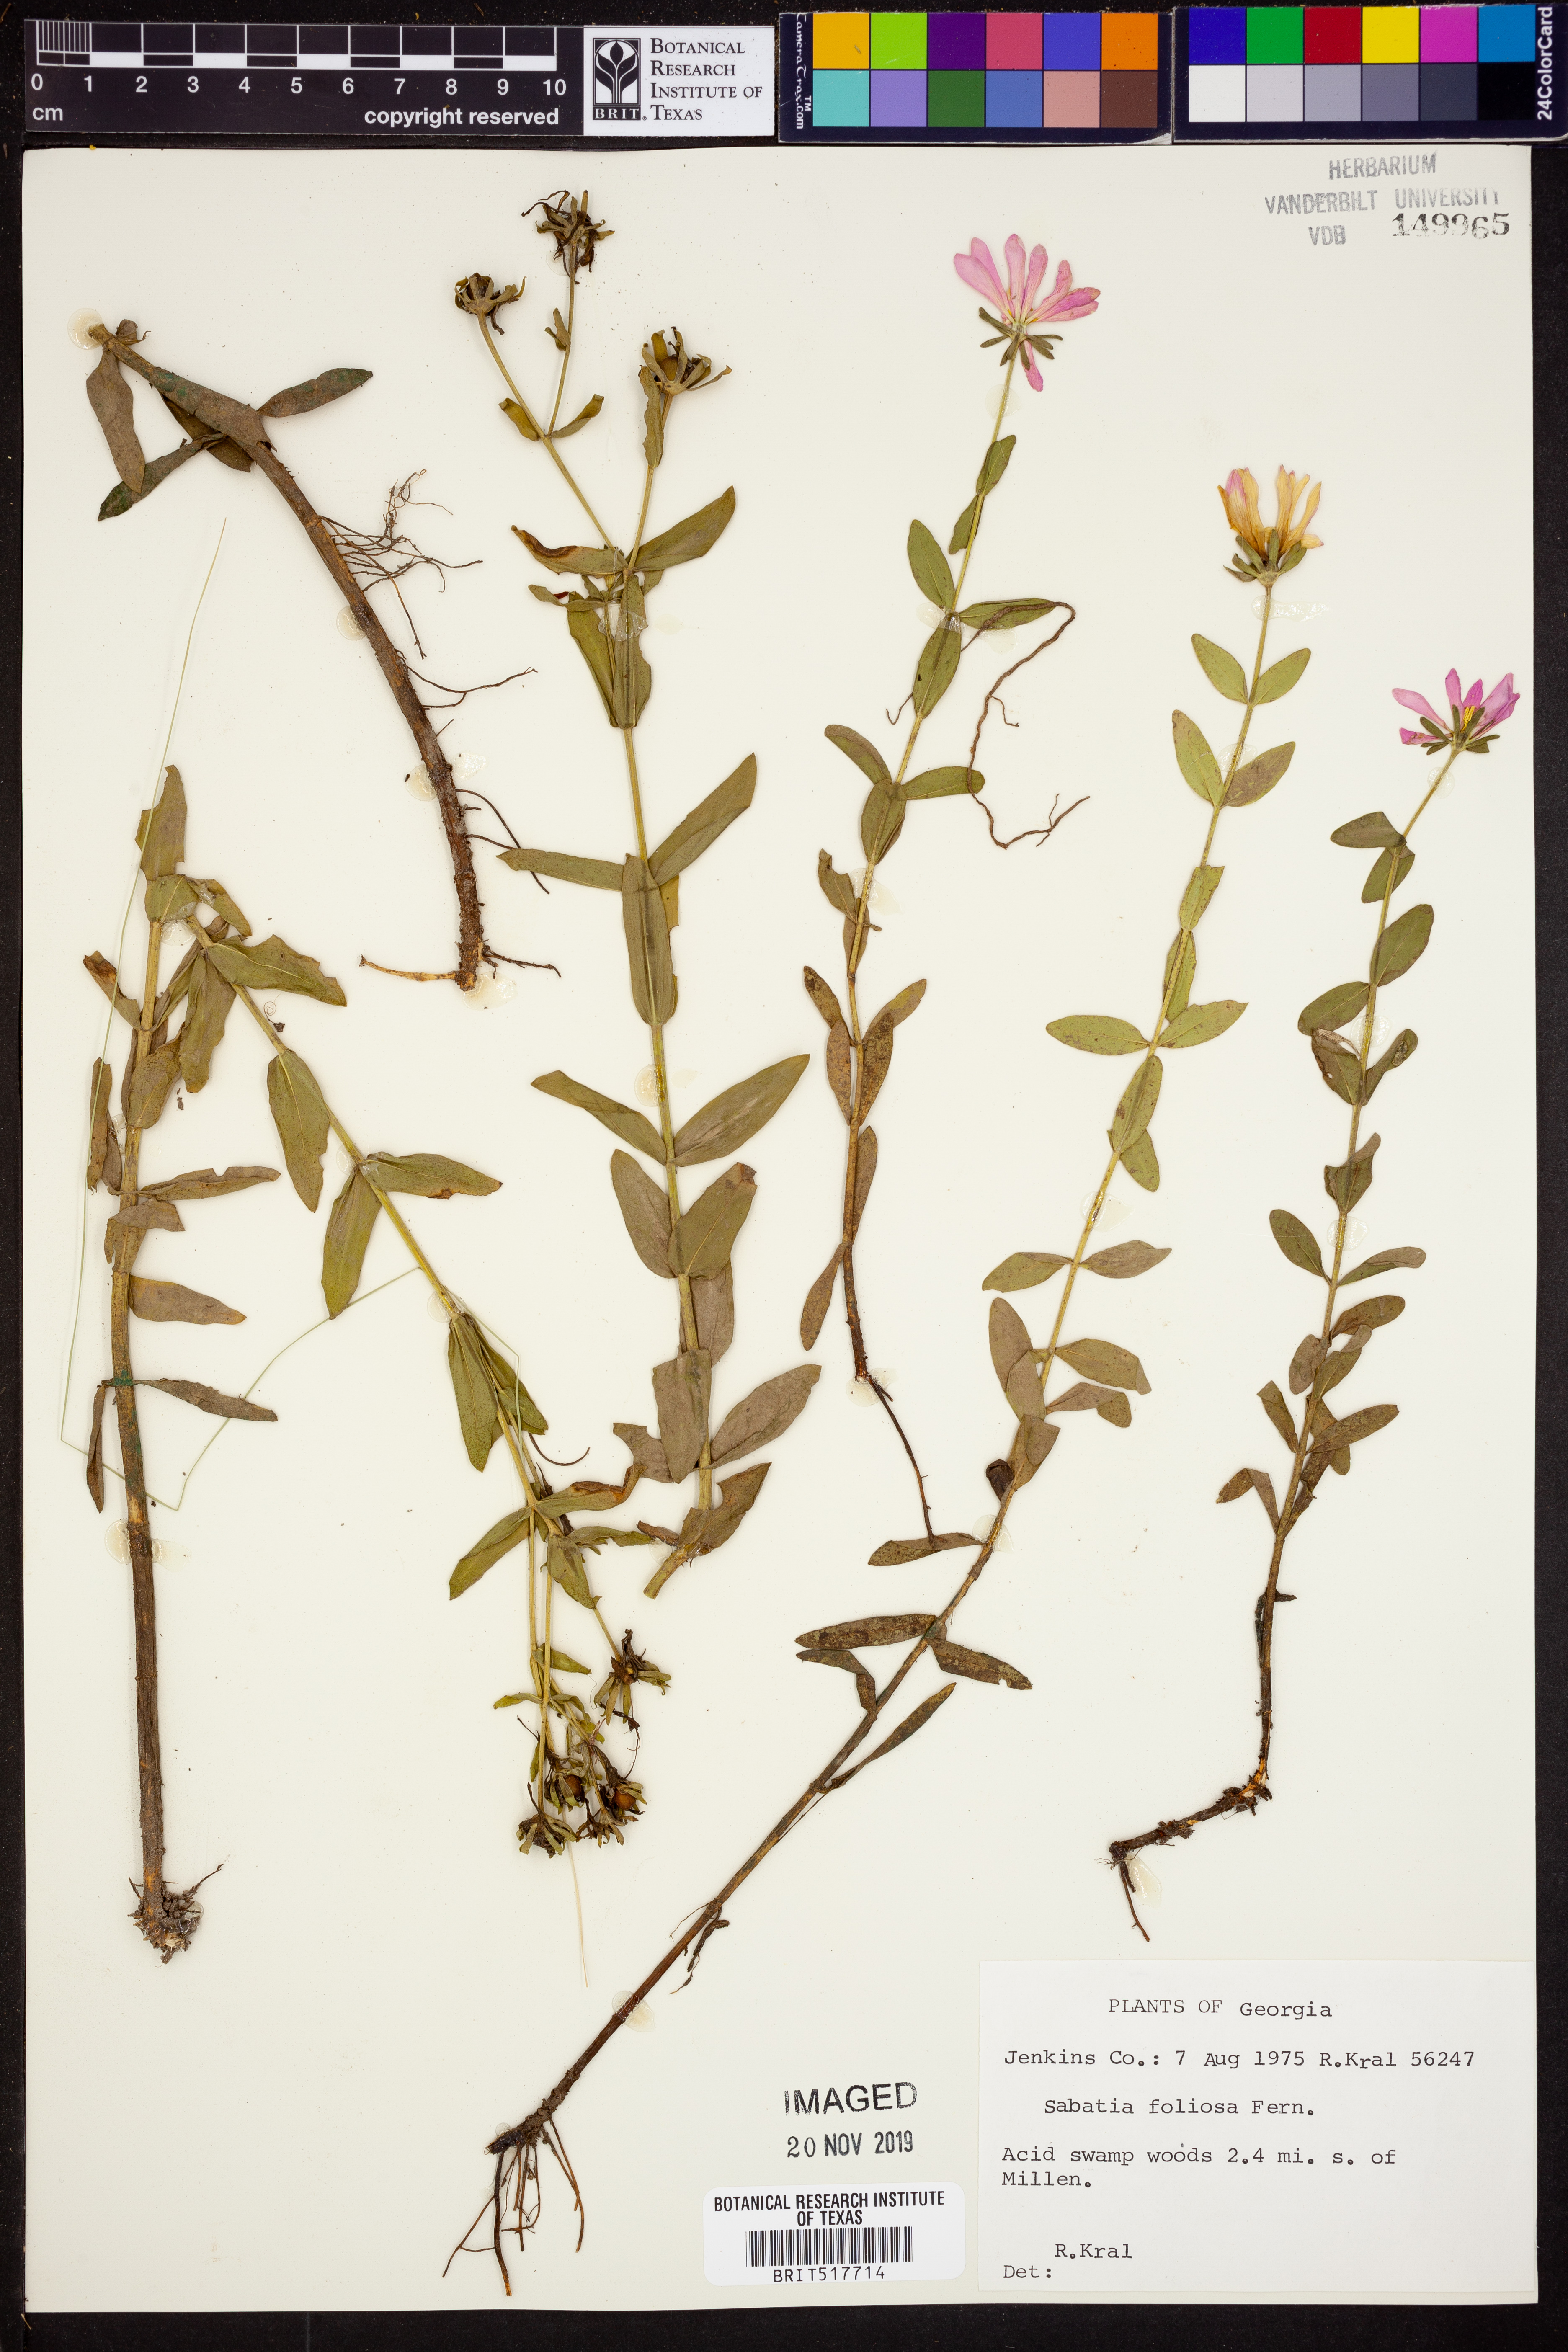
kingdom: Plantae
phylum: Tracheophyta
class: Magnoliopsida
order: Gentianales
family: Gentianaceae
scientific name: Gentianaceae
